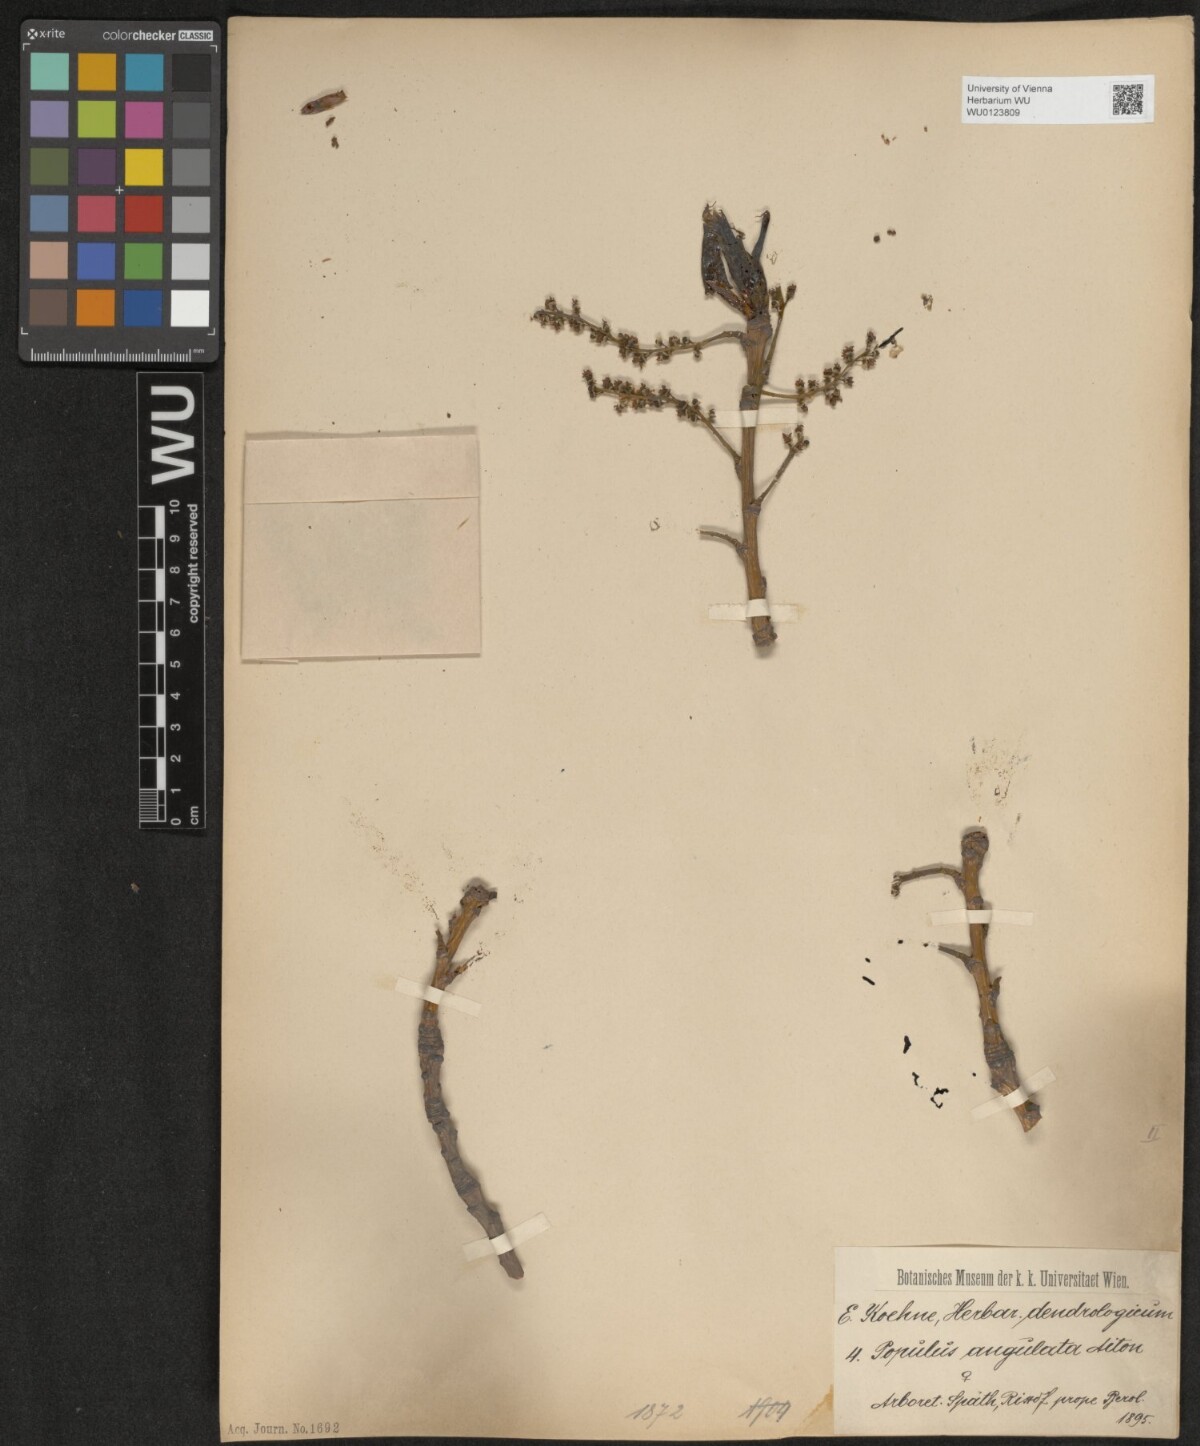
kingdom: Plantae
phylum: Tracheophyta
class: Magnoliopsida
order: Malpighiales
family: Salicaceae
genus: Populus
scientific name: Populus deltoides
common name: Eastern cottonwood
